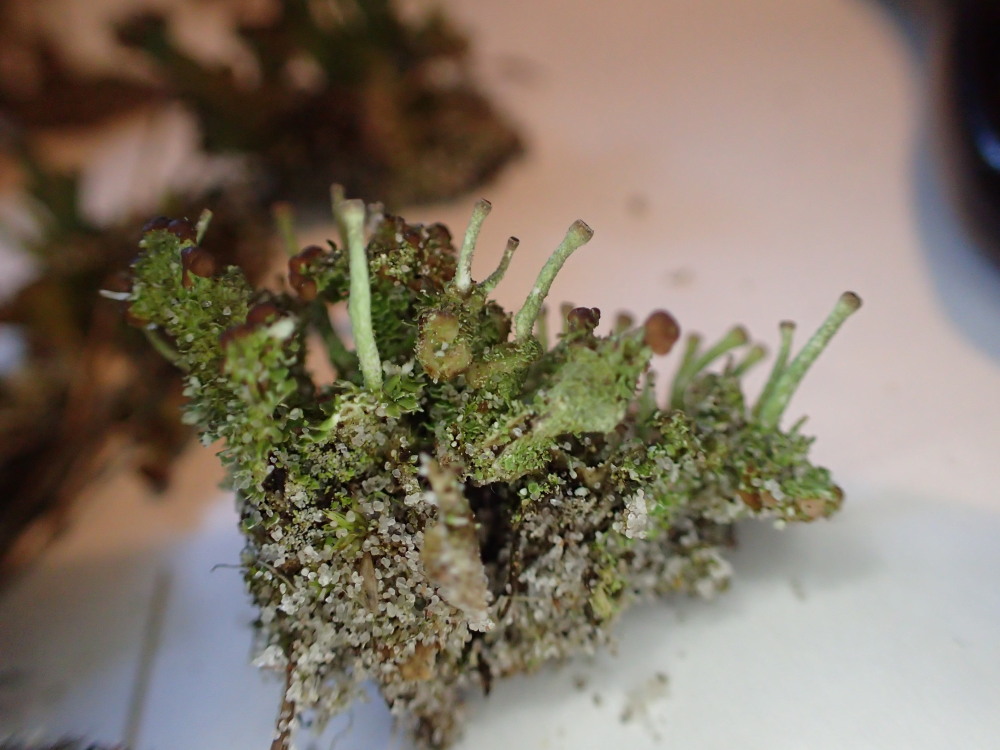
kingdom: Fungi
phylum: Ascomycota
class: Lecanoromycetes
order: Lecanorales
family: Cladoniaceae
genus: Cladonia
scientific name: Cladonia ramulosa
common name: kliddet bægerlav
